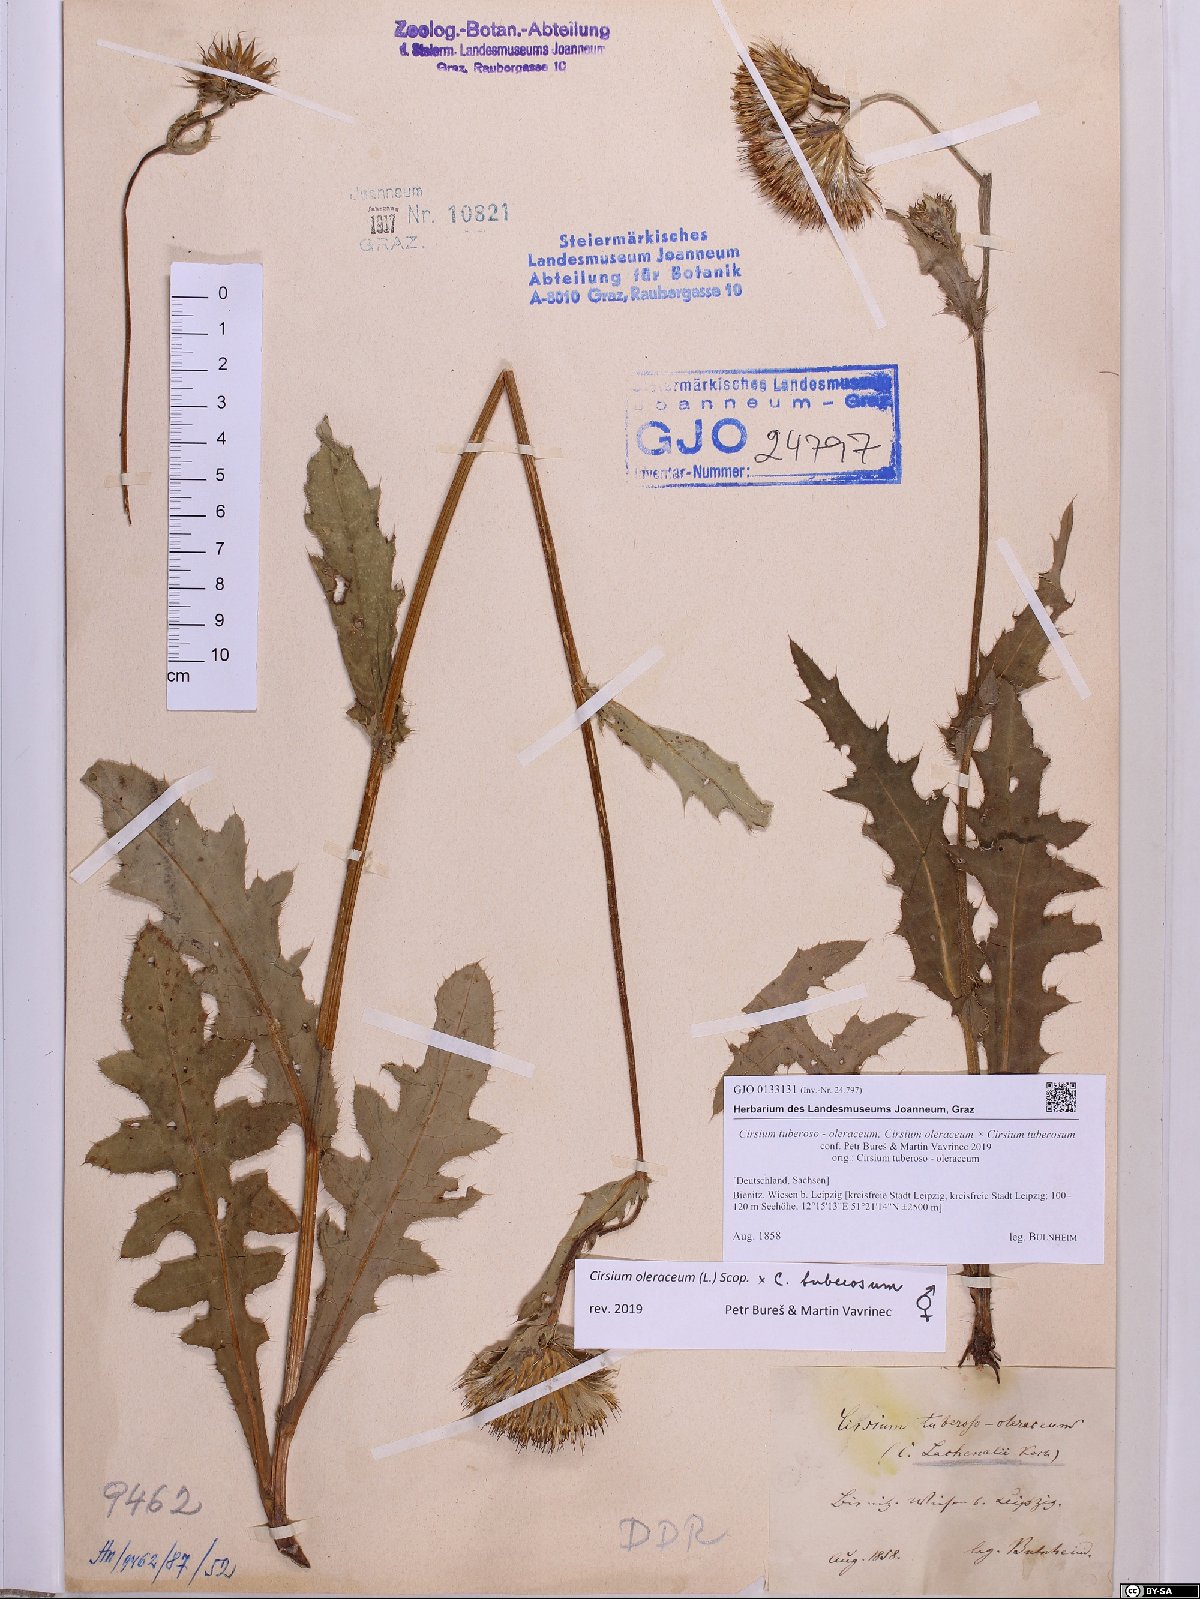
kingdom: Plantae
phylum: Tracheophyta
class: Magnoliopsida
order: Asterales
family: Asteraceae
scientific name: Asteraceae
